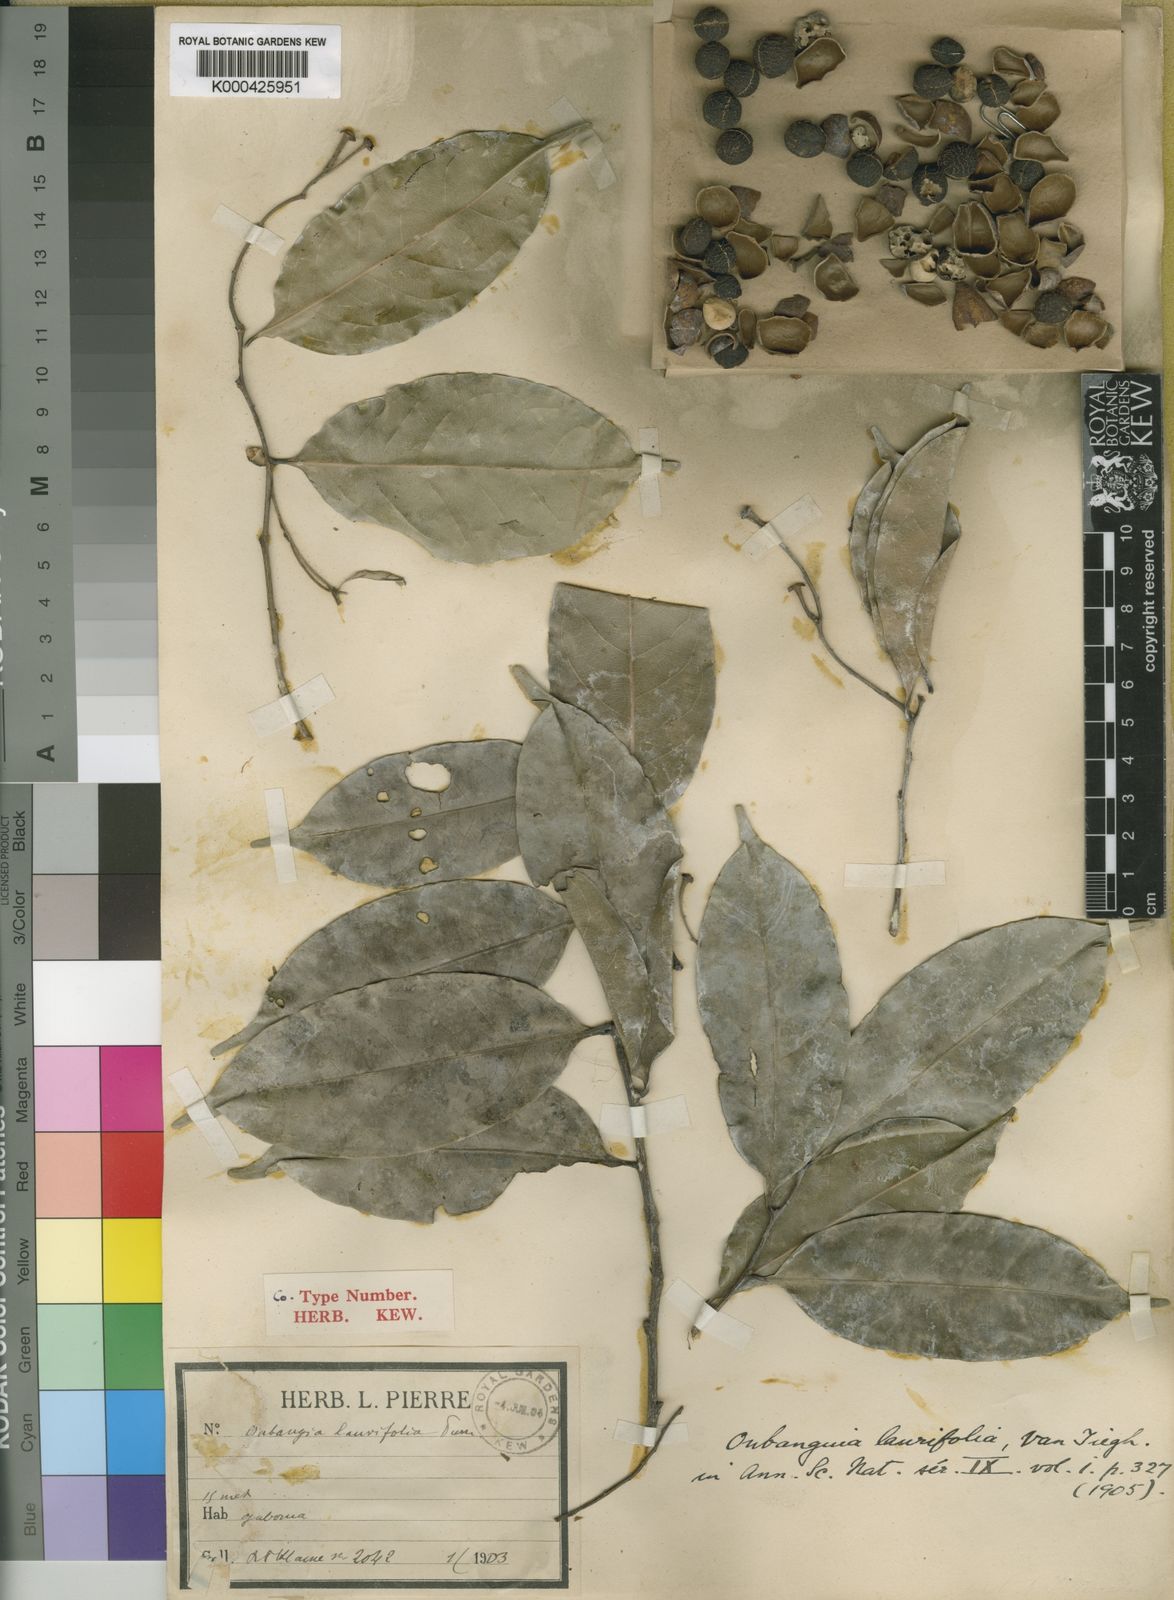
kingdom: Plantae
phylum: Tracheophyta
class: Magnoliopsida
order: Ericales
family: Lecythidaceae
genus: Oubanguia
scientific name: Oubanguia laurifolia
